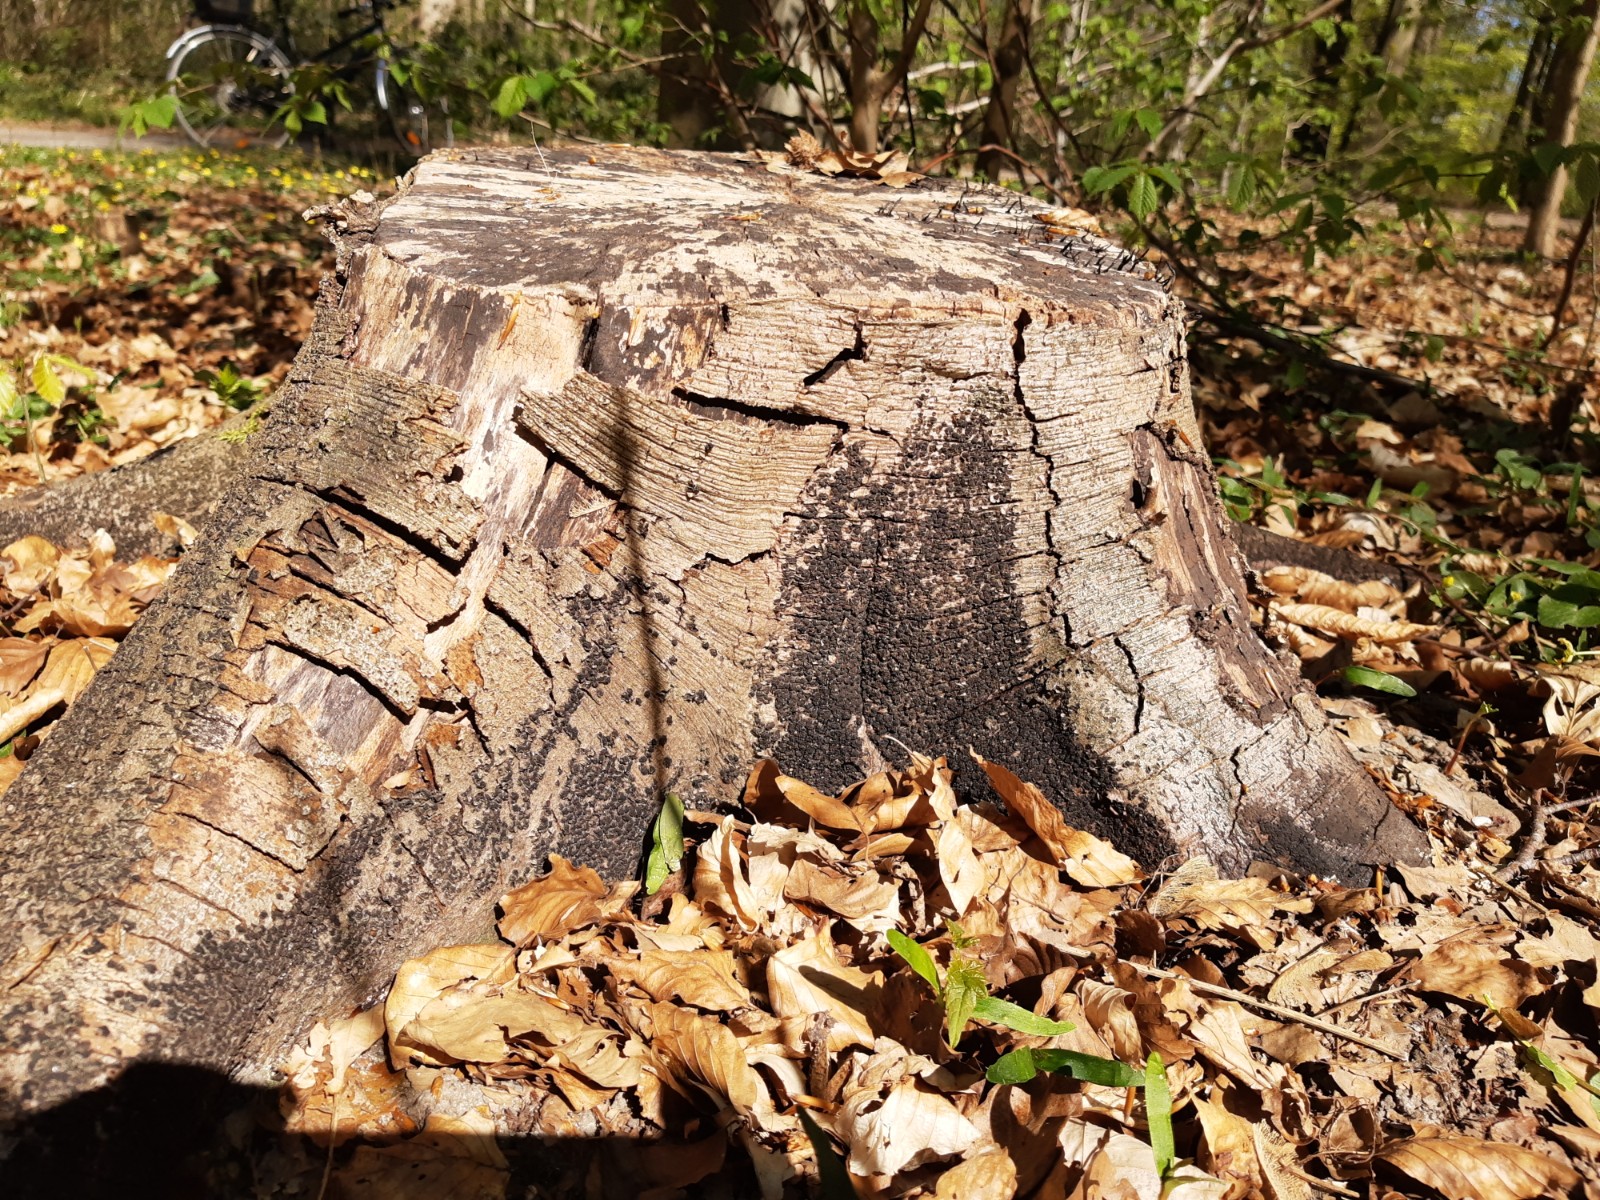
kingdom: Fungi
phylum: Ascomycota
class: Sordariomycetes
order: Xylariales
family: Melogrammataceae
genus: Melogramma
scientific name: Melogramma spiniferum
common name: bøgefod-kulhals
